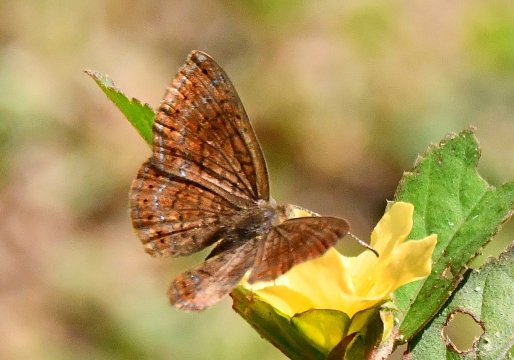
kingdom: Animalia
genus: Calephelis
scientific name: Calephelis perditalis
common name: Rounded Metalmark
